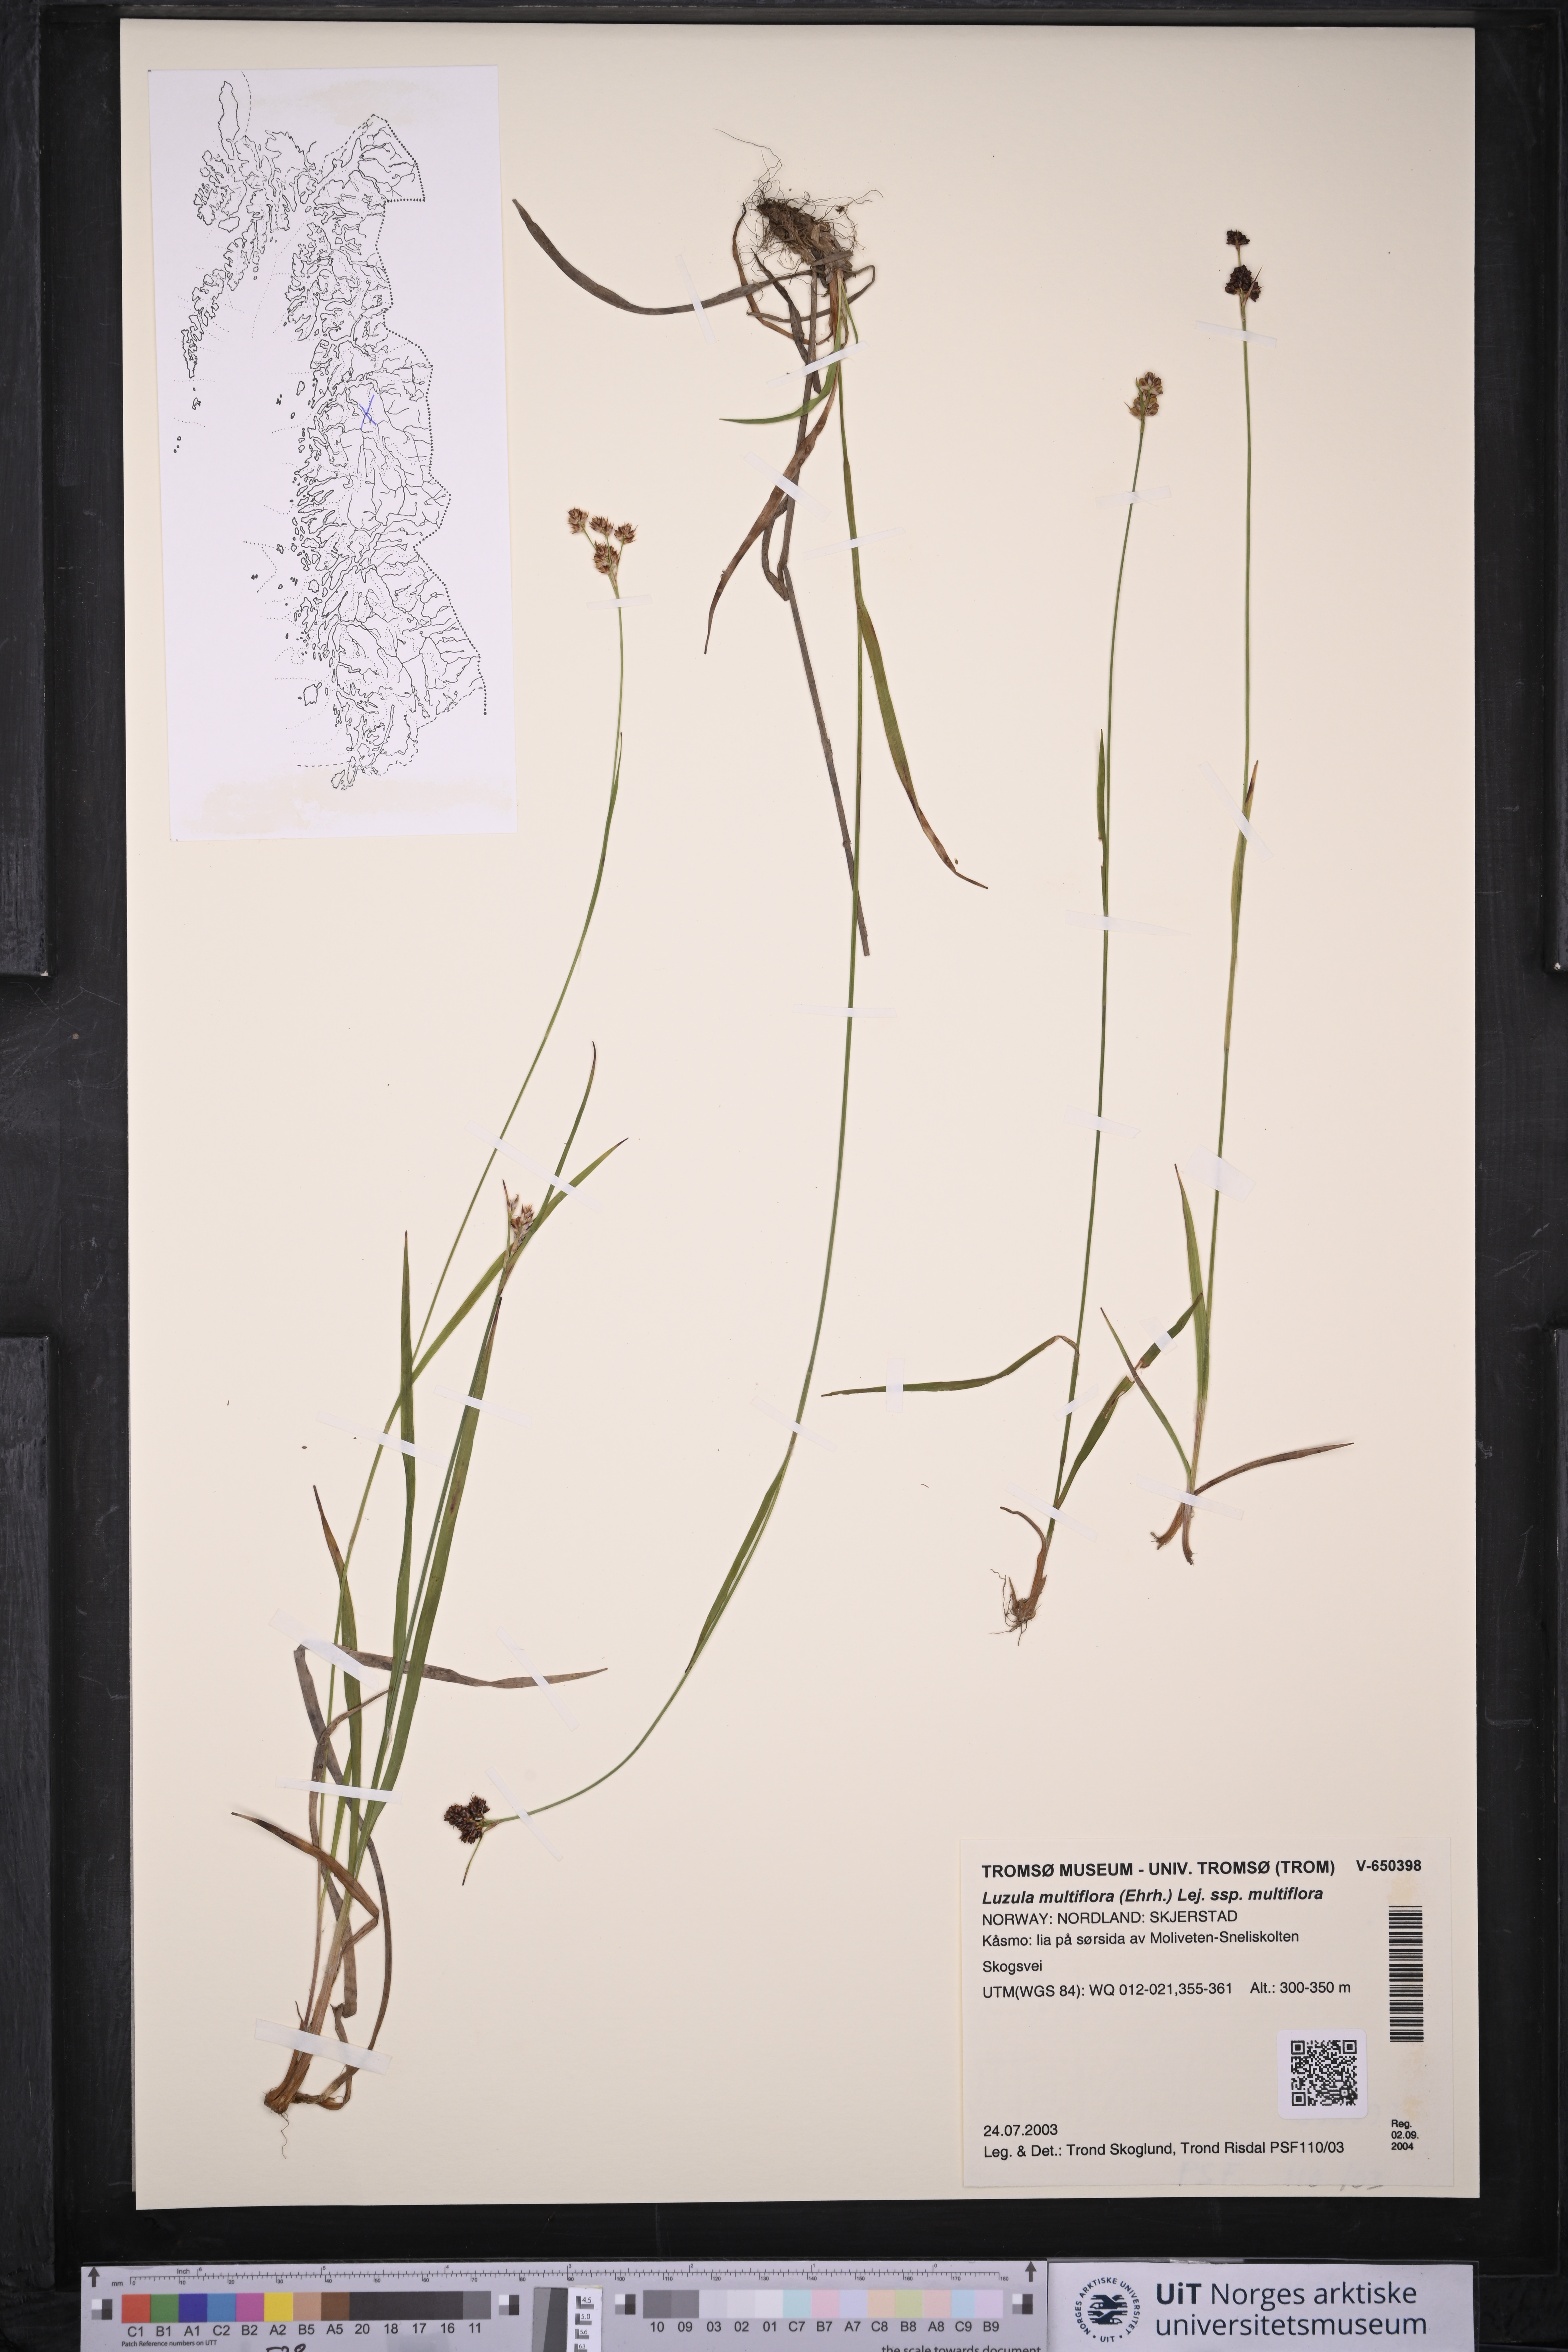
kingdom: Plantae
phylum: Tracheophyta
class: Liliopsida
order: Poales
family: Juncaceae
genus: Luzula
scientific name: Luzula multiflora
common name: Heath wood-rush
